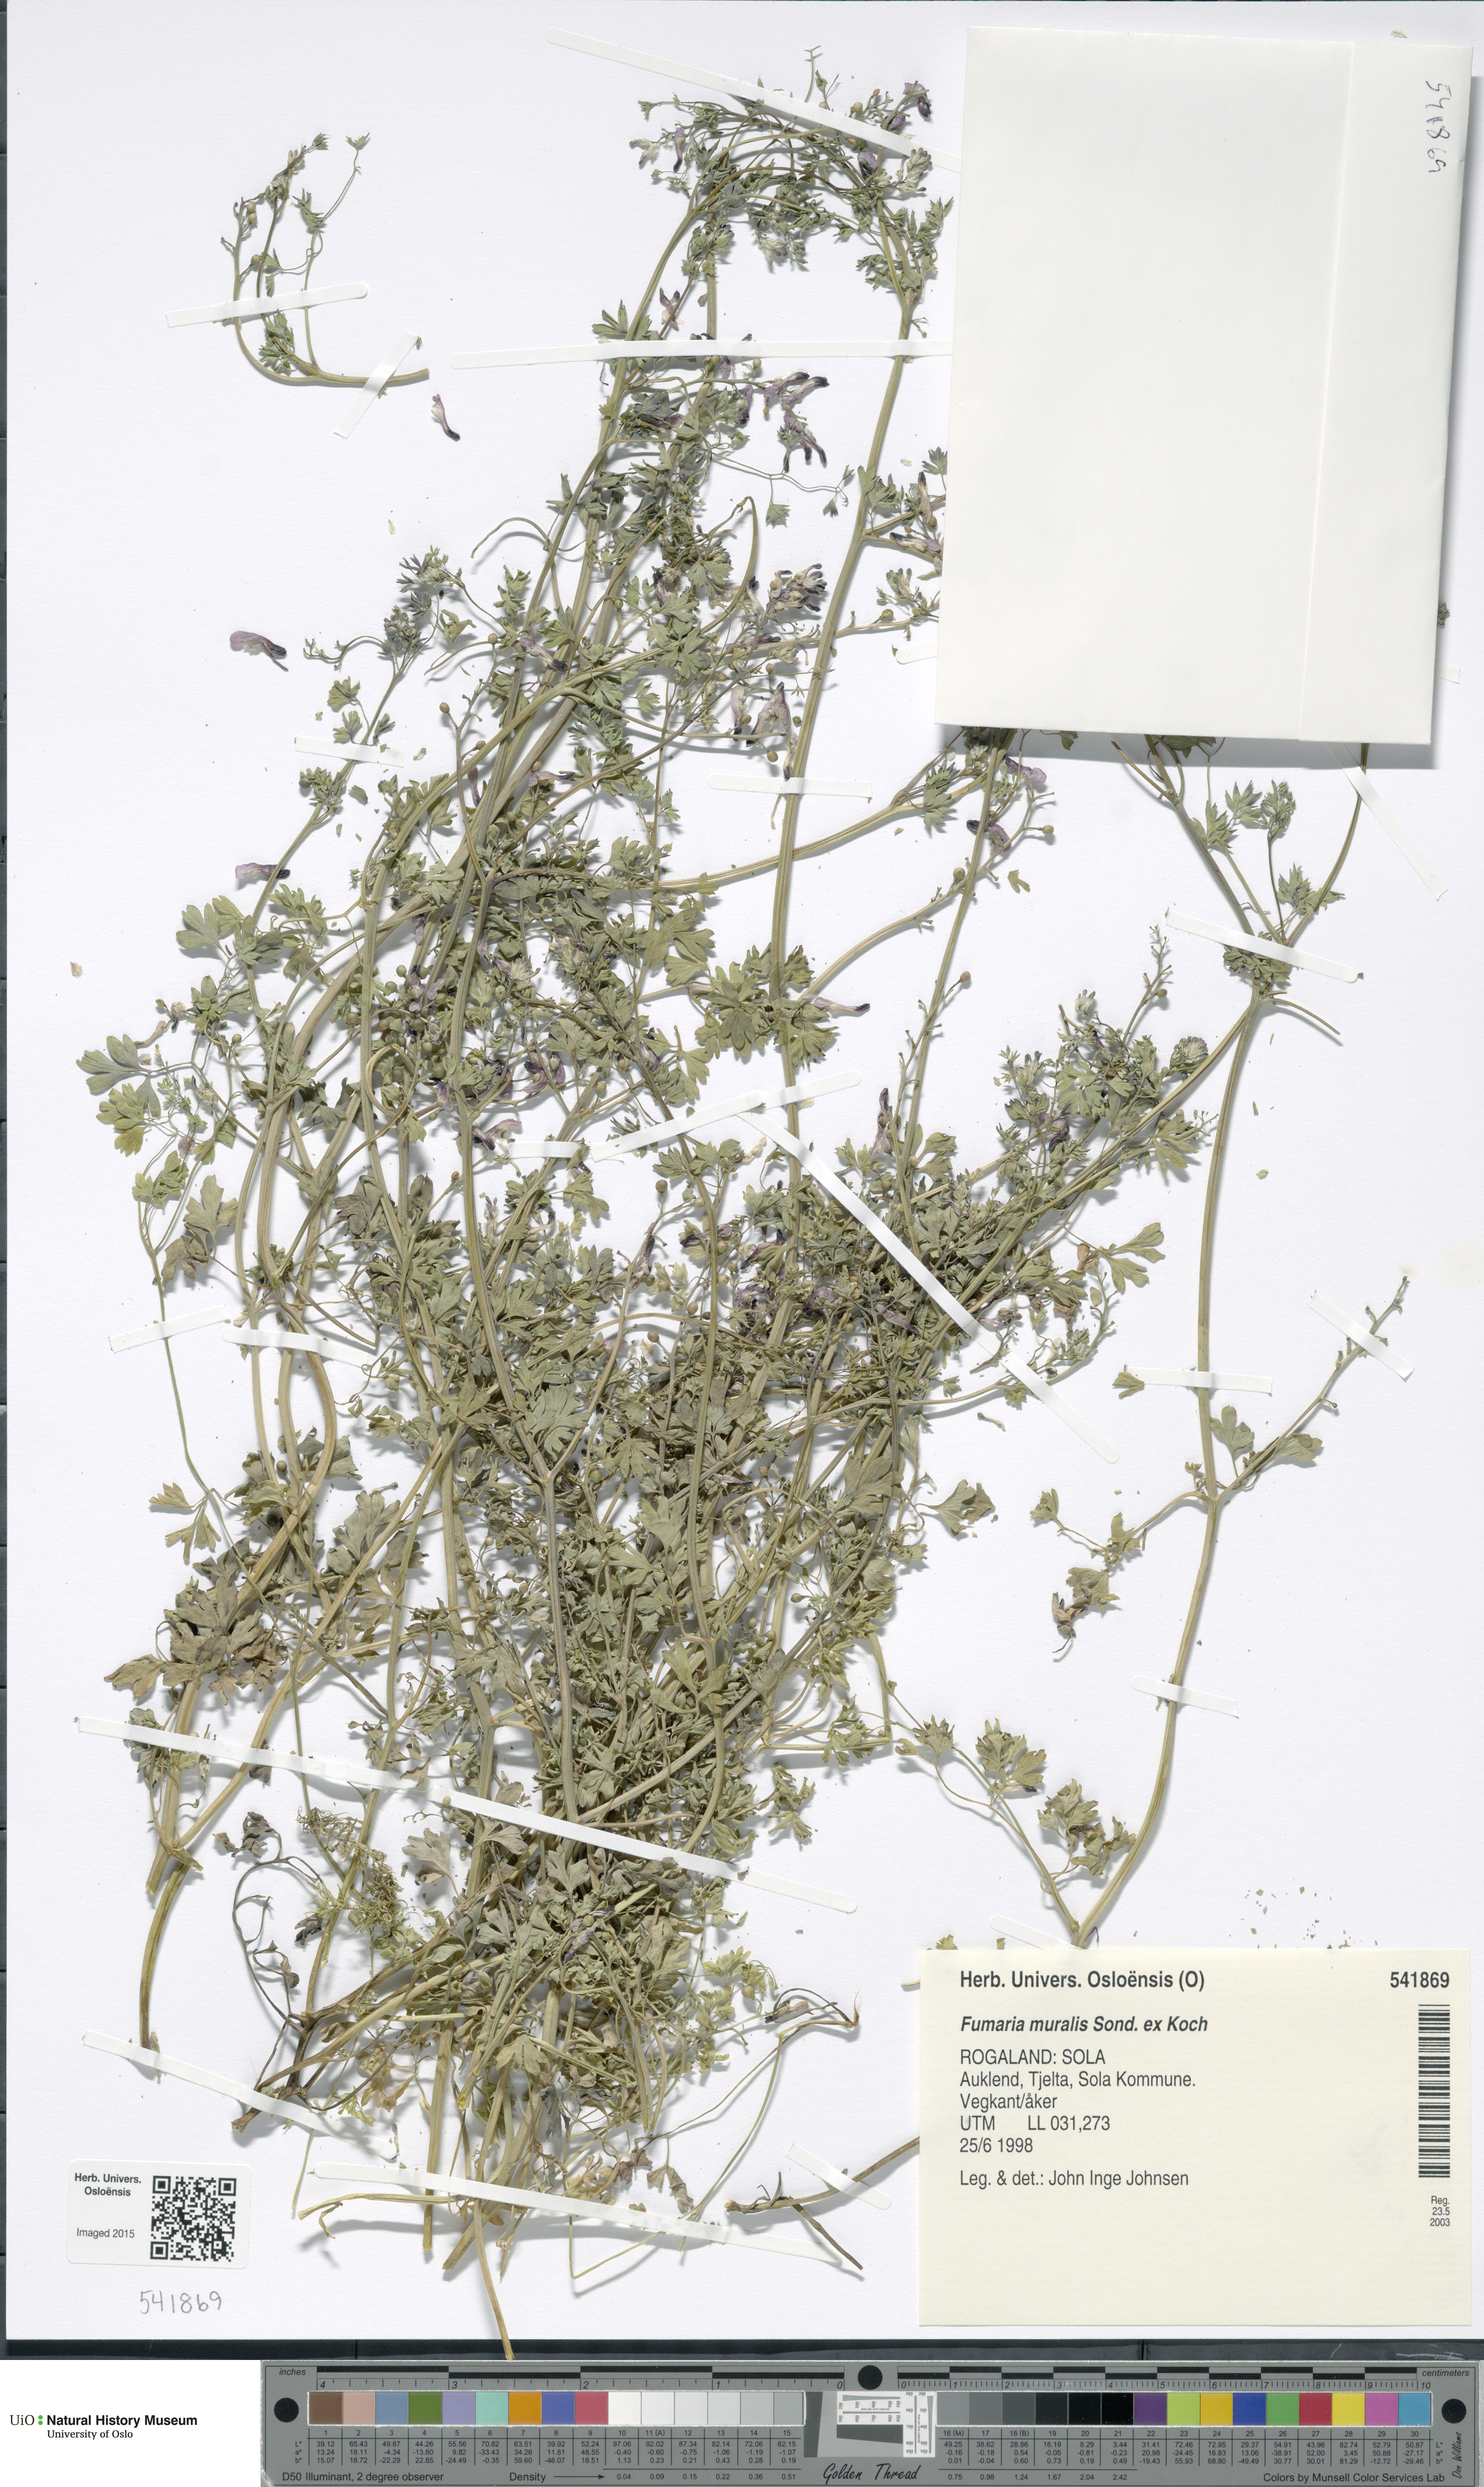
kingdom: Plantae
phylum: Tracheophyta
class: Magnoliopsida
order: Ranunculales
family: Papaveraceae
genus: Fumaria
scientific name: Fumaria muralis
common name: Common ramping-fumitory
